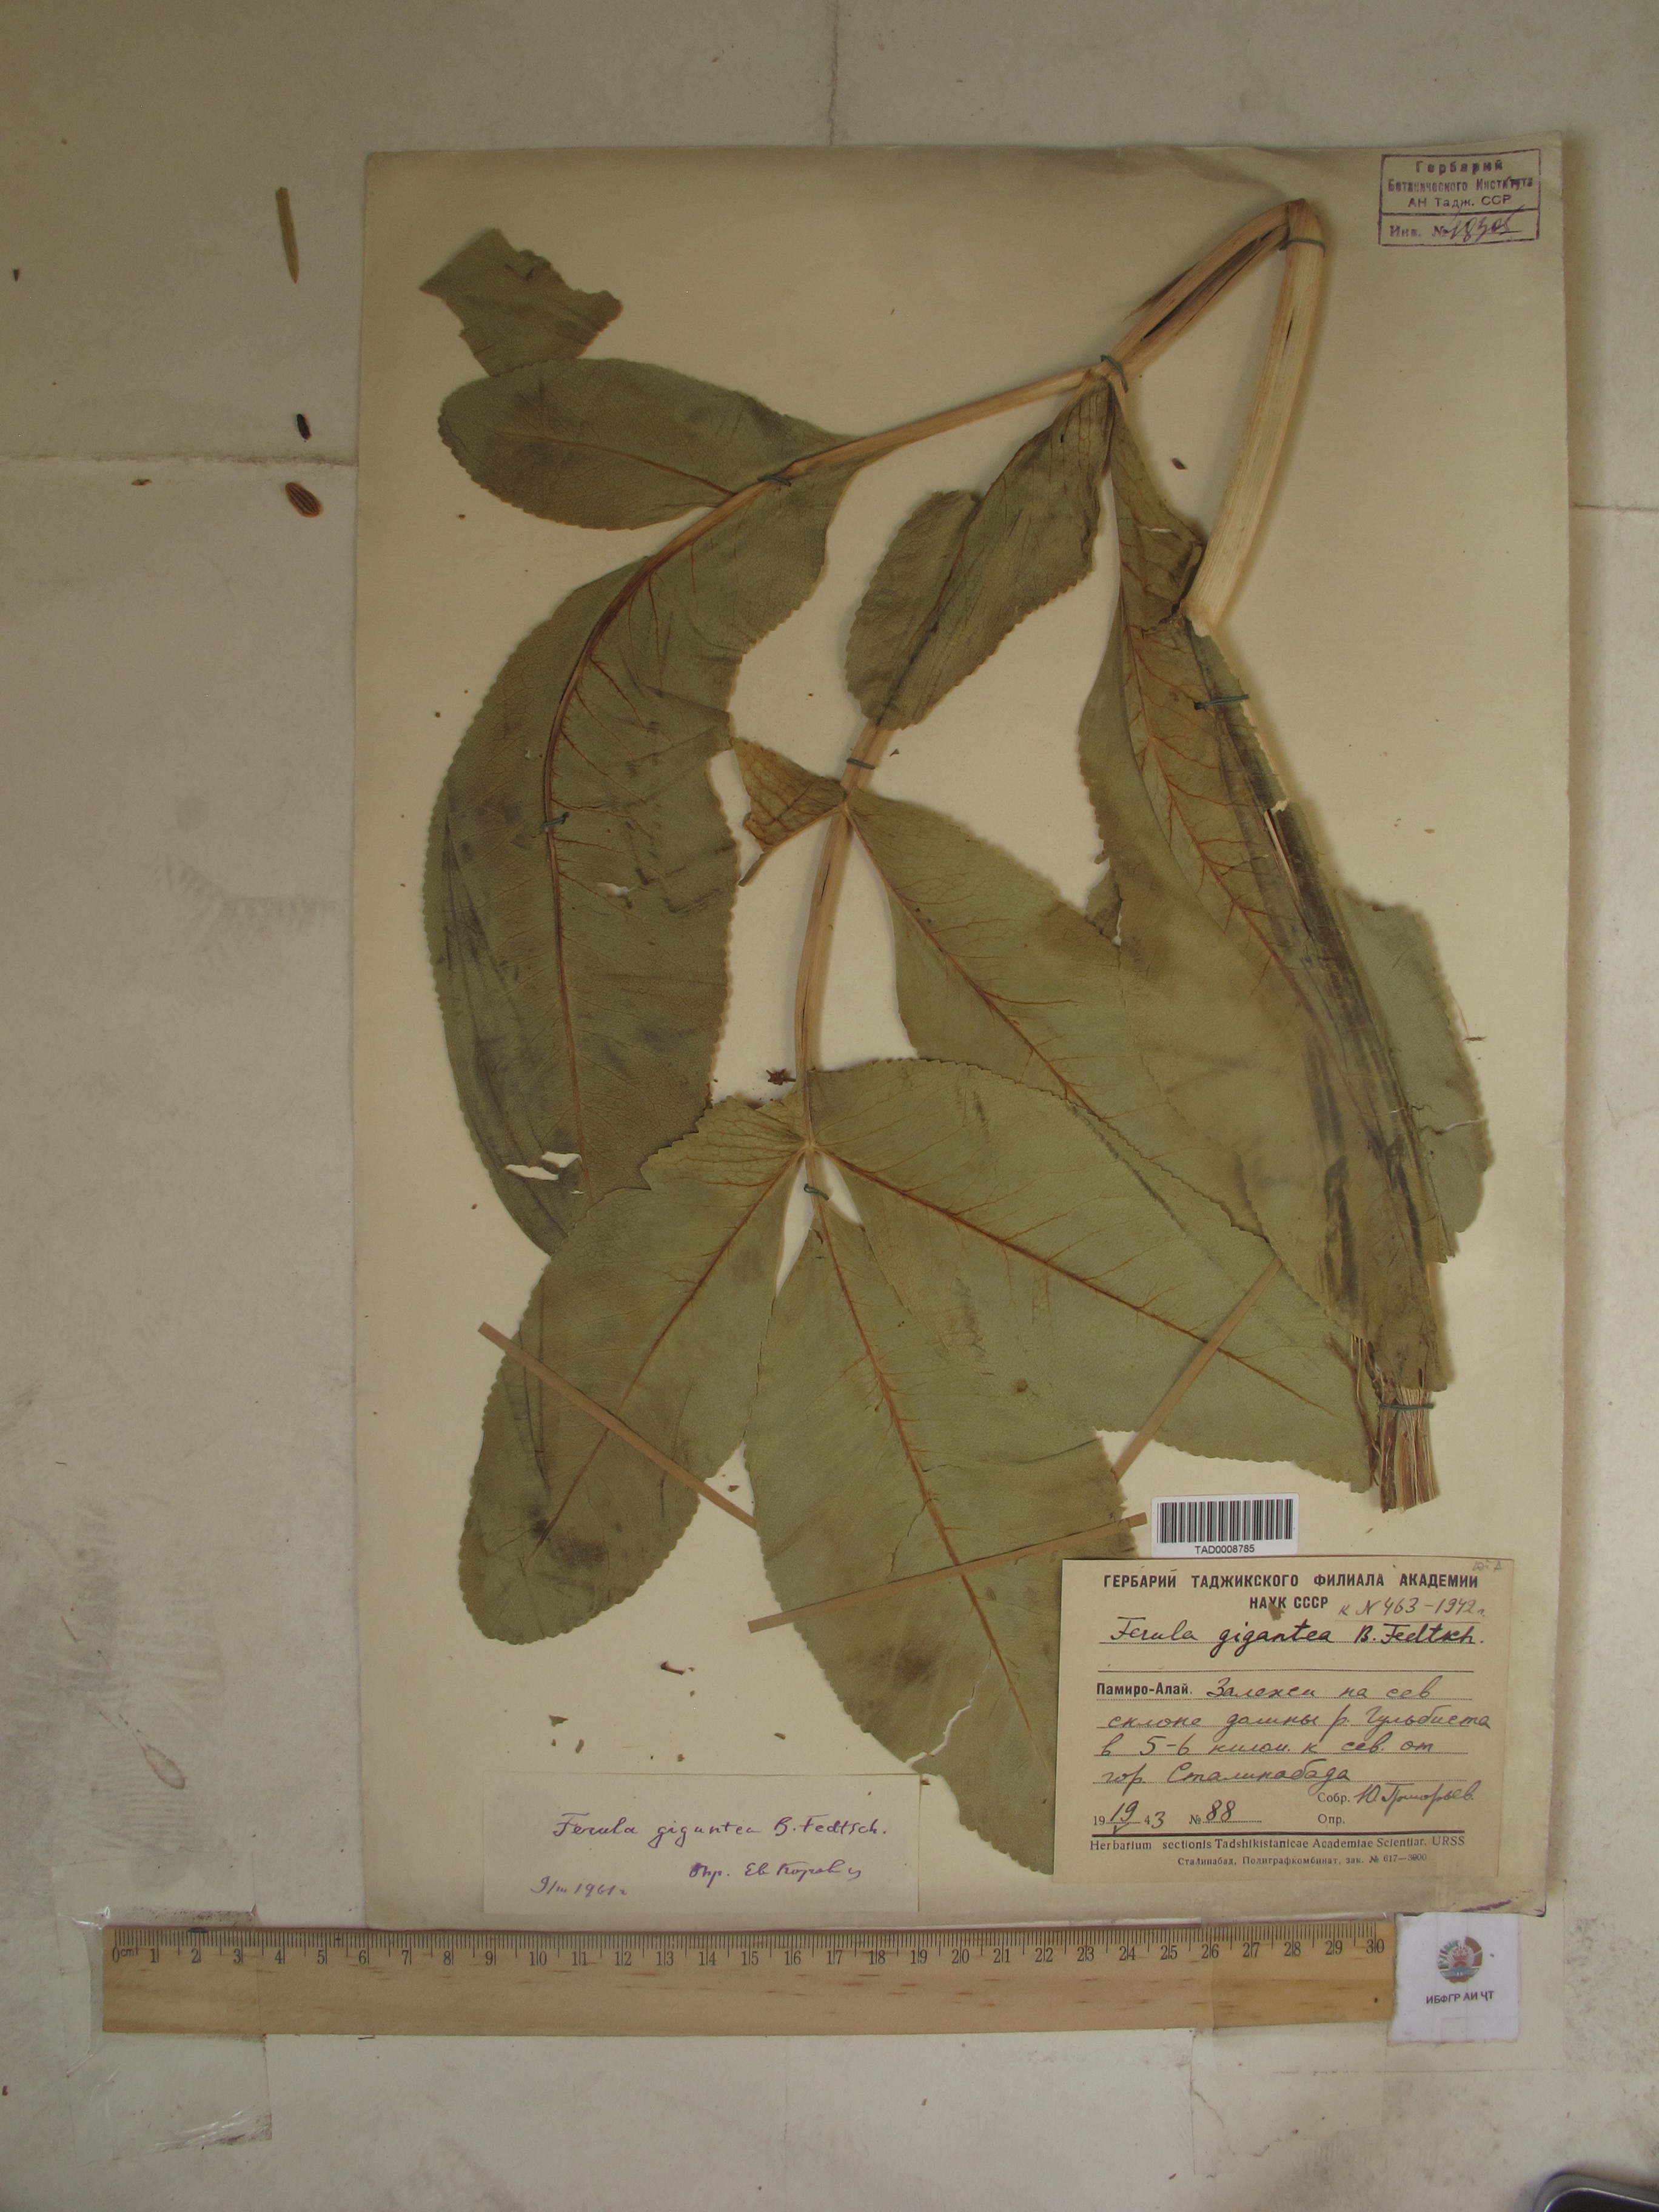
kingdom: Plantae
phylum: Tracheophyta
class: Magnoliopsida
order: Apiales
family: Apiaceae
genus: Ferula
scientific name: Ferula gigantea
